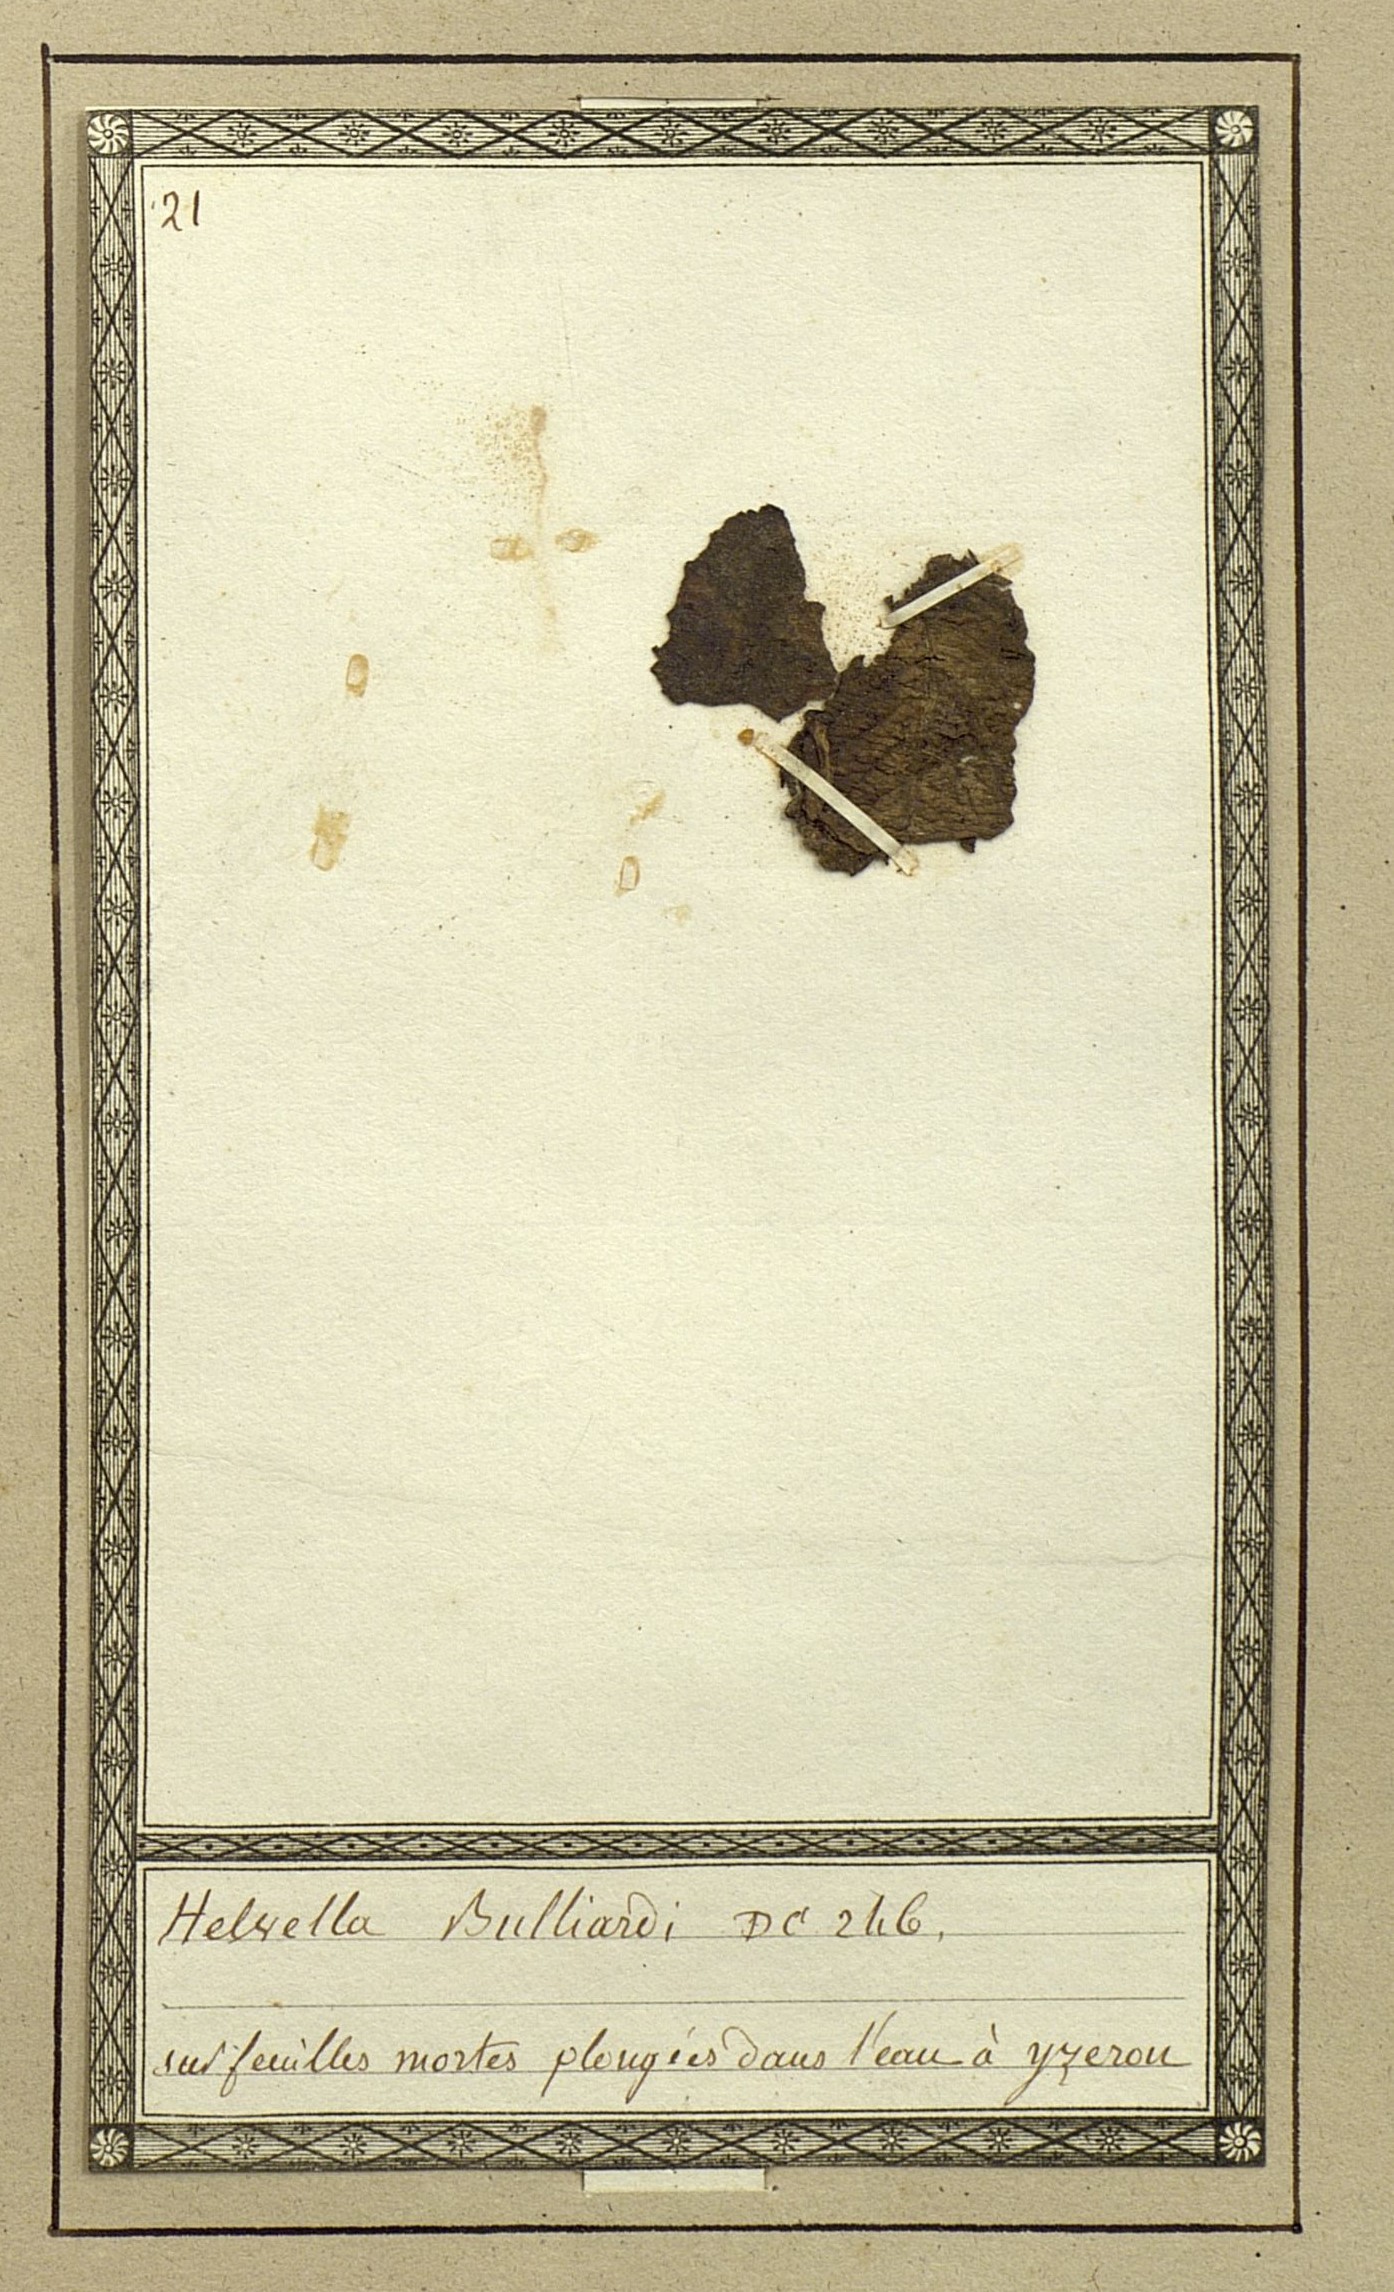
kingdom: Fungi
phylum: Ascomycota
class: Pezizomycetes
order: Pezizales
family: Helvellaceae
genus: Helvella
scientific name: Helvella
